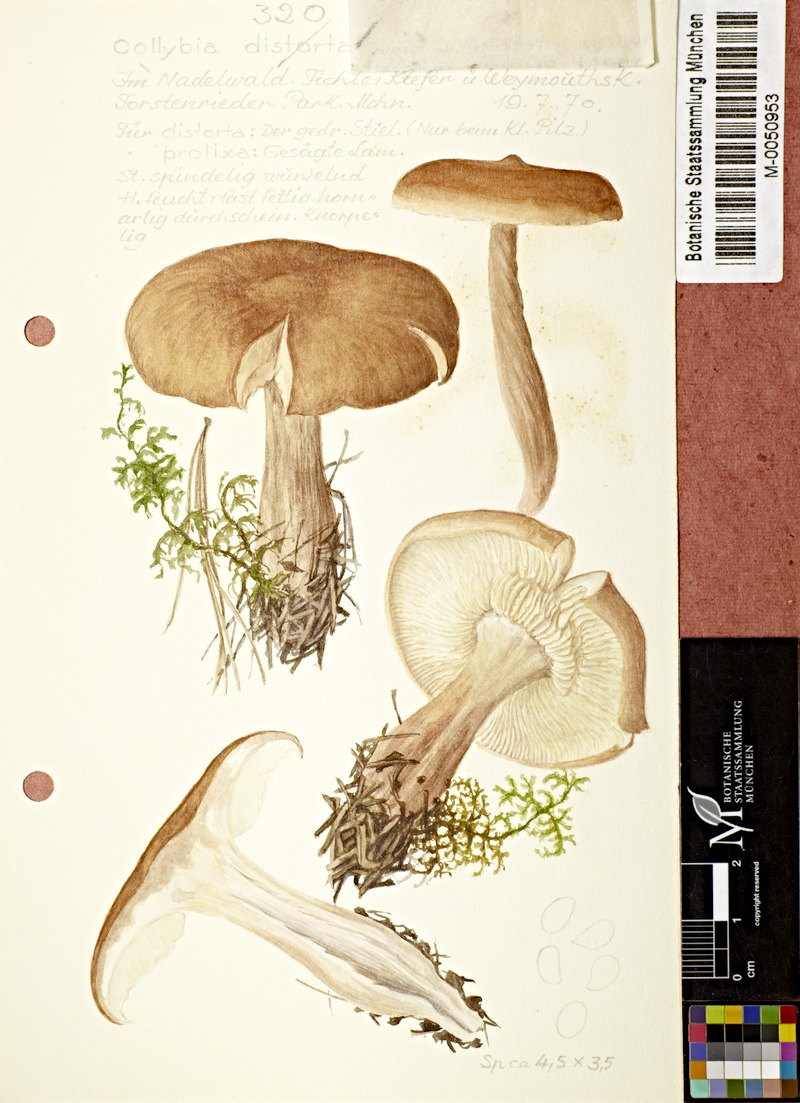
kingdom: Fungi
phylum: Basidiomycota
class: Agaricomycetes
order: Agaricales
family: Omphalotaceae
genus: Rhodocollybia
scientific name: Rhodocollybia prolixa
